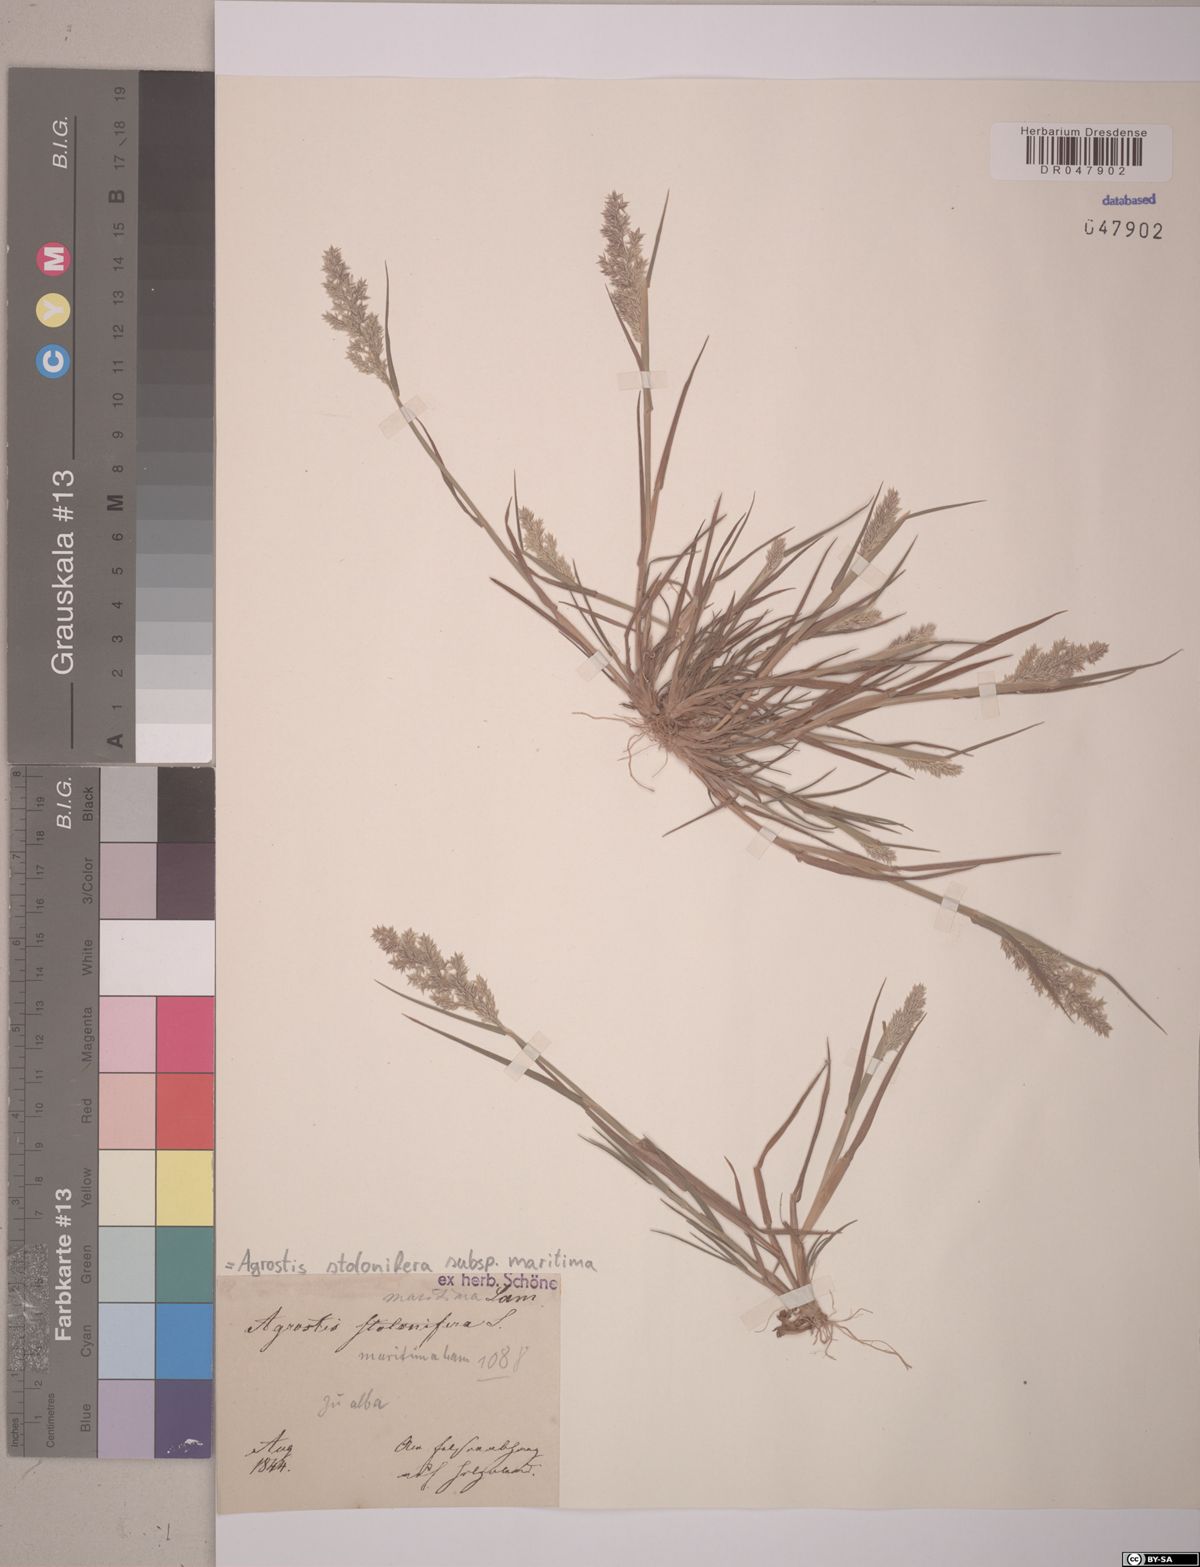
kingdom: Plantae
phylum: Tracheophyta
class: Liliopsida
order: Poales
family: Poaceae
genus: Agrostis
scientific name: Agrostis stolonifera
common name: Creeping bentgrass
